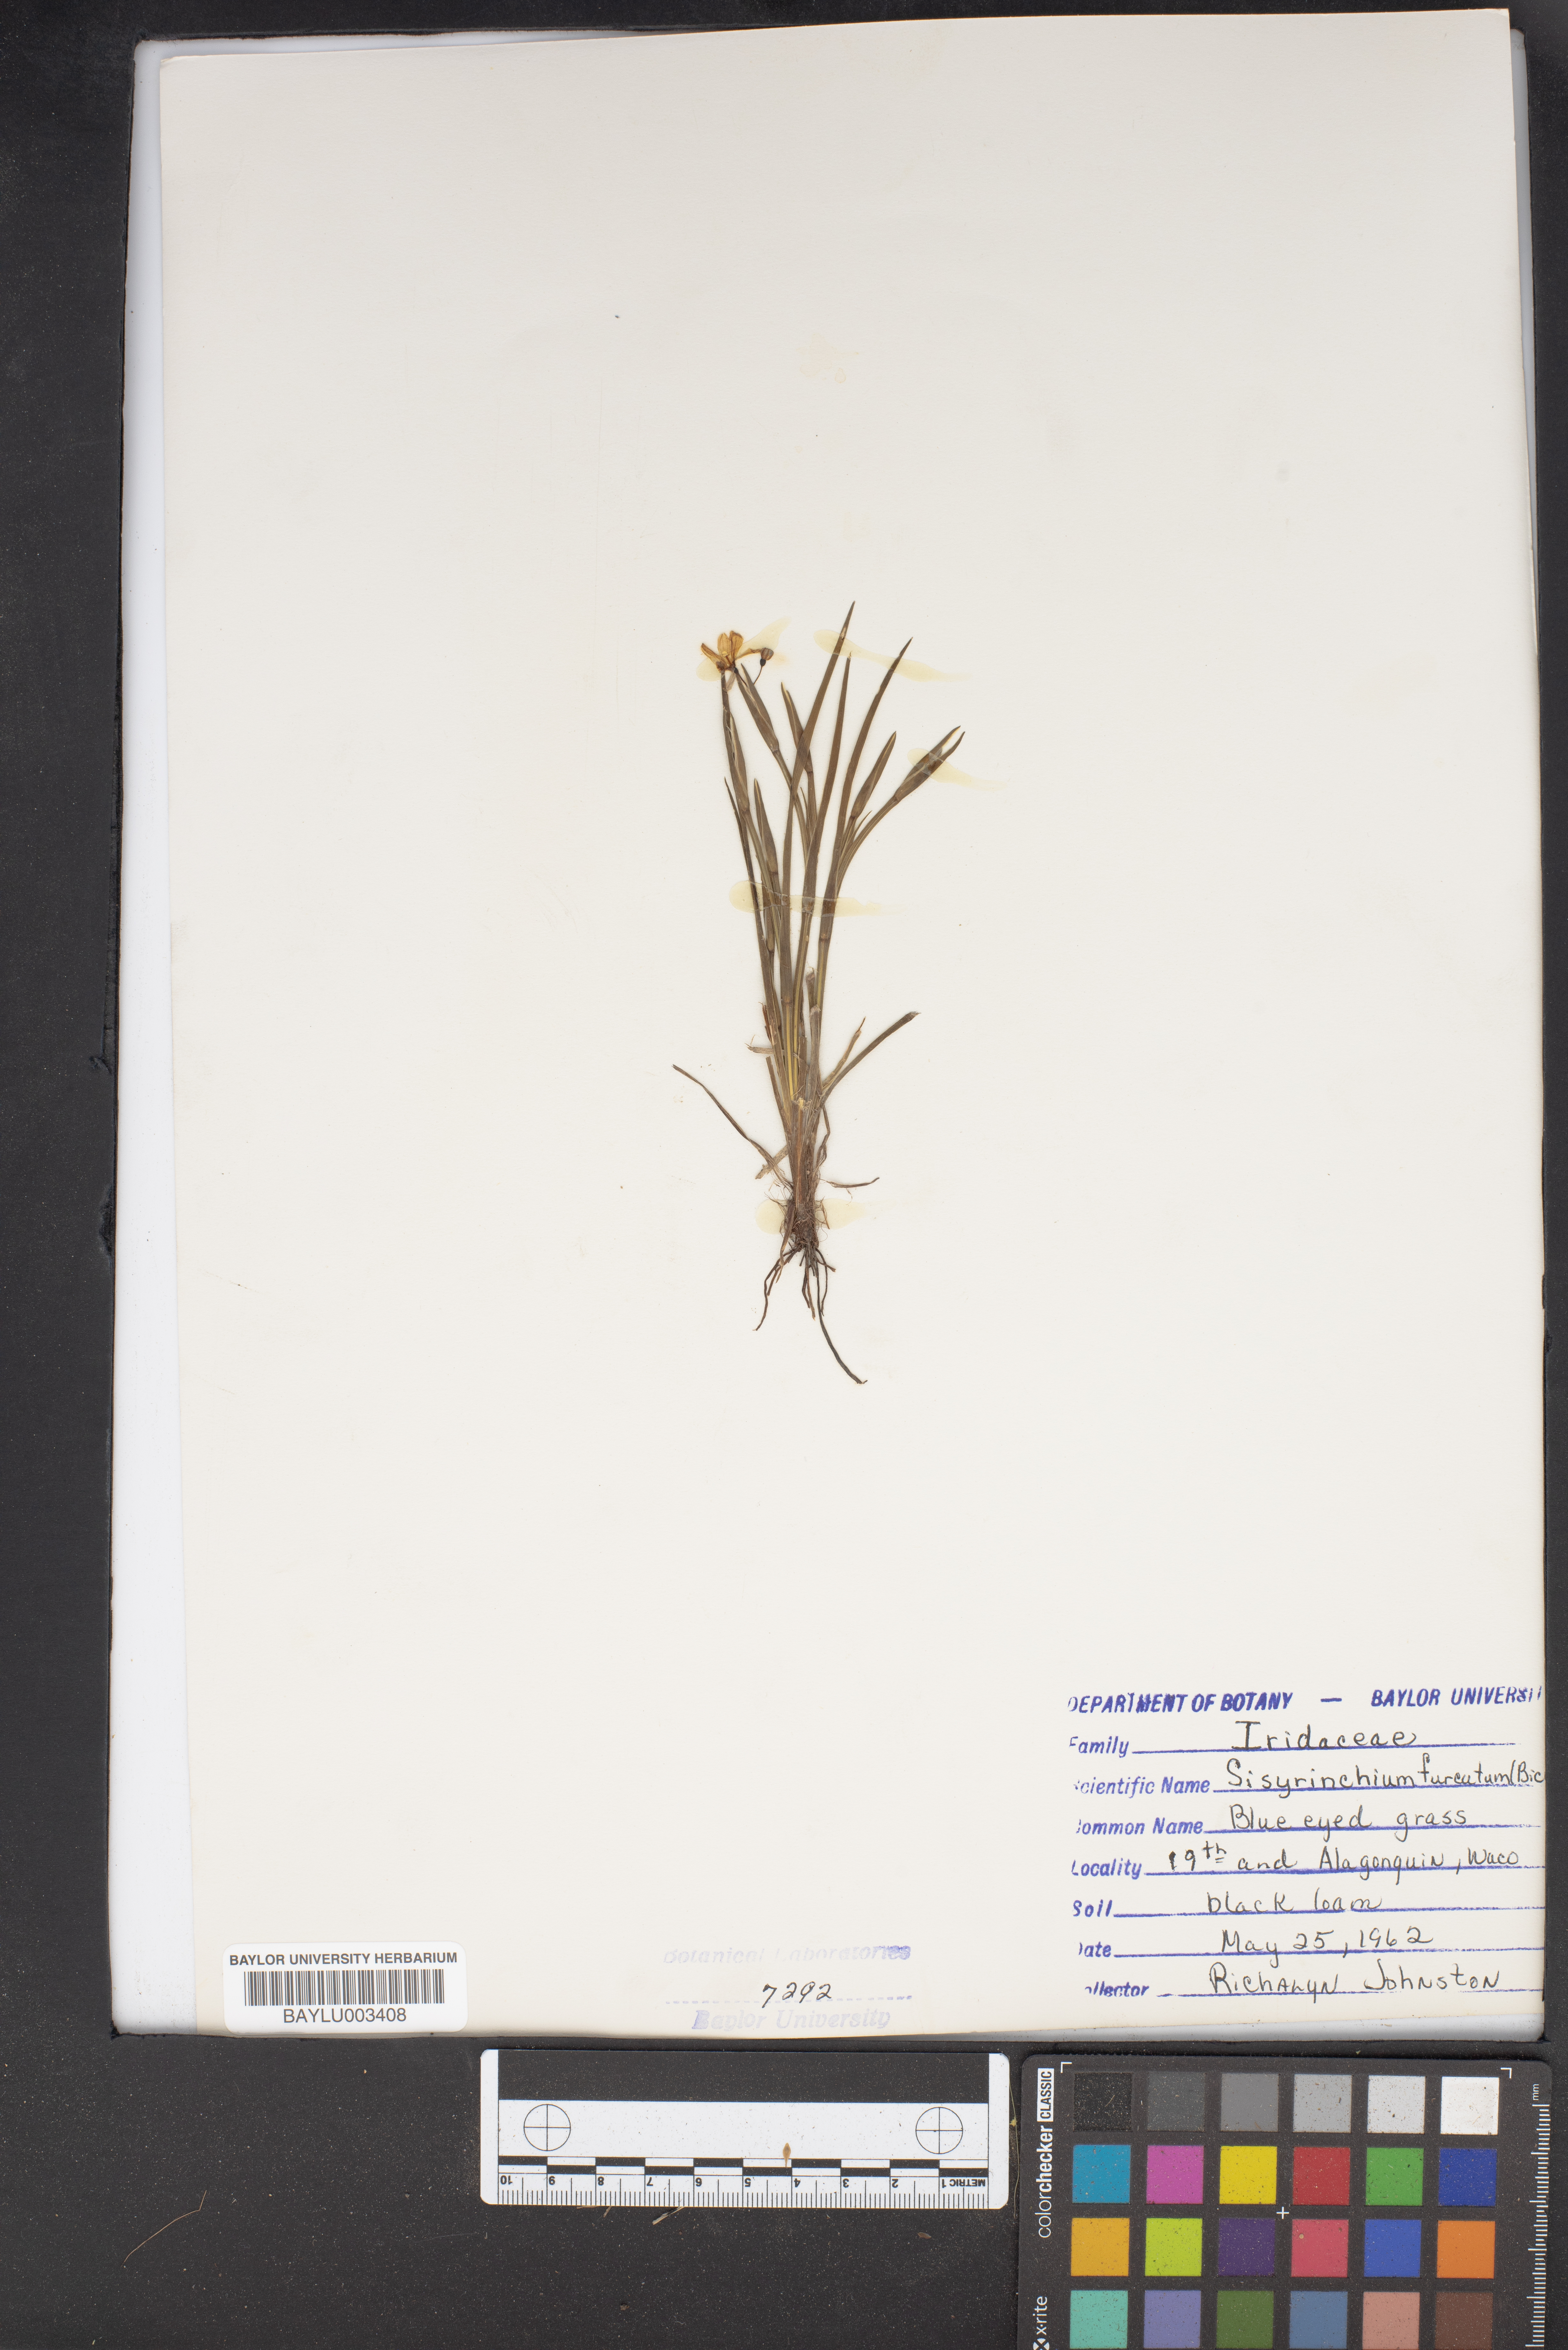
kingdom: Plantae
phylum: Tracheophyta
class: Liliopsida
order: Asparagales
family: Iridaceae
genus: Sisyrinchium
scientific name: Sisyrinchium langloisii
